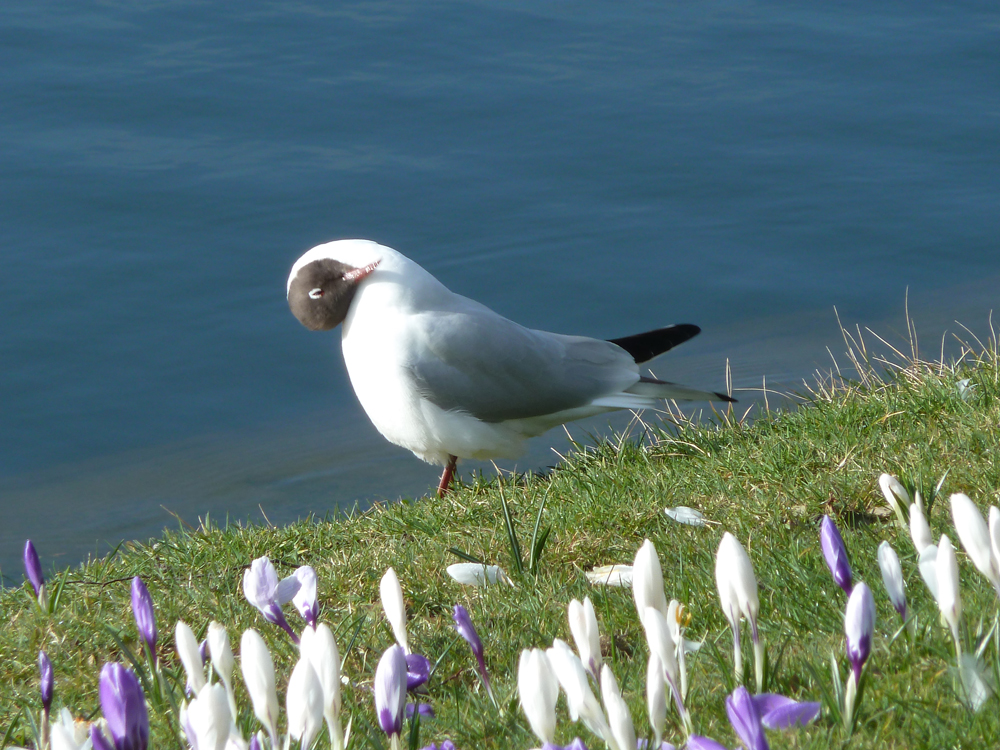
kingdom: Animalia
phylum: Chordata
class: Aves
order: Charadriiformes
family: Laridae
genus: Chroicocephalus
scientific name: Chroicocephalus ridibundus
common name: Black-headed gull
